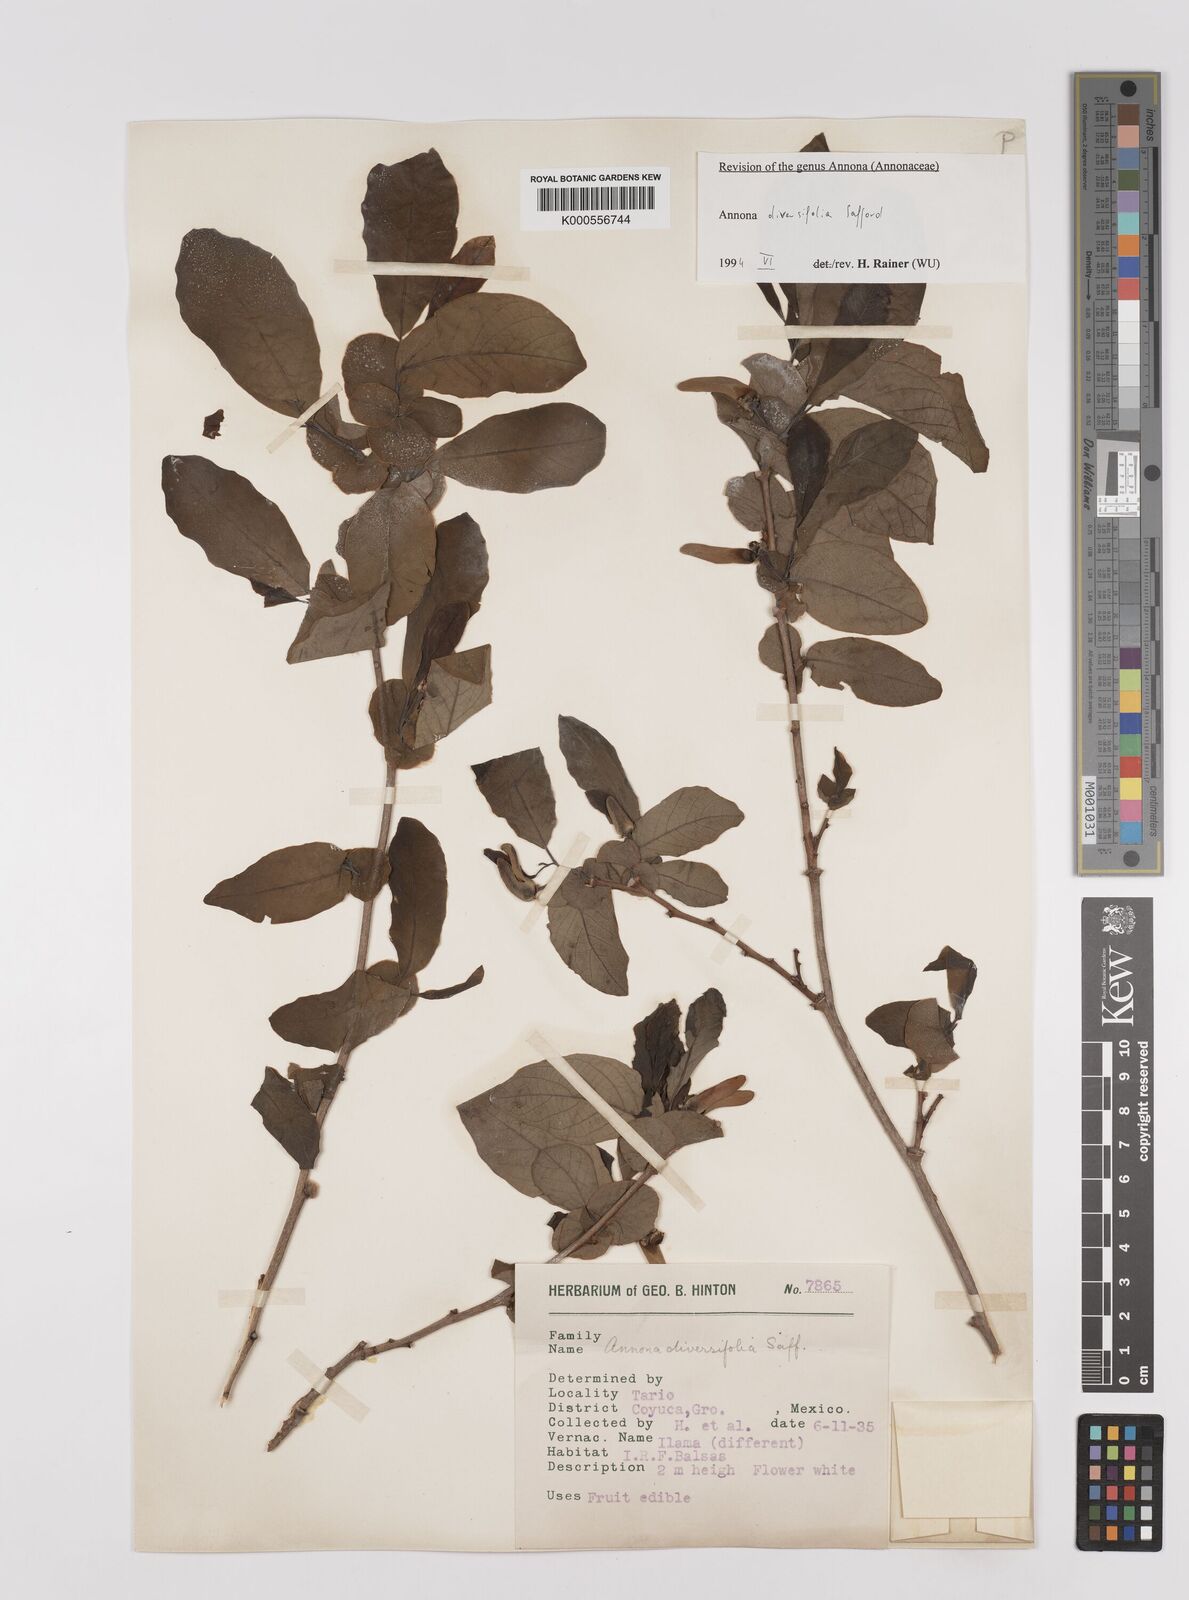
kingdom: Plantae
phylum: Tracheophyta
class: Magnoliopsida
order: Magnoliales
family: Annonaceae
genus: Annona
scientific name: Annona macroprophyllata
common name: Ilama
